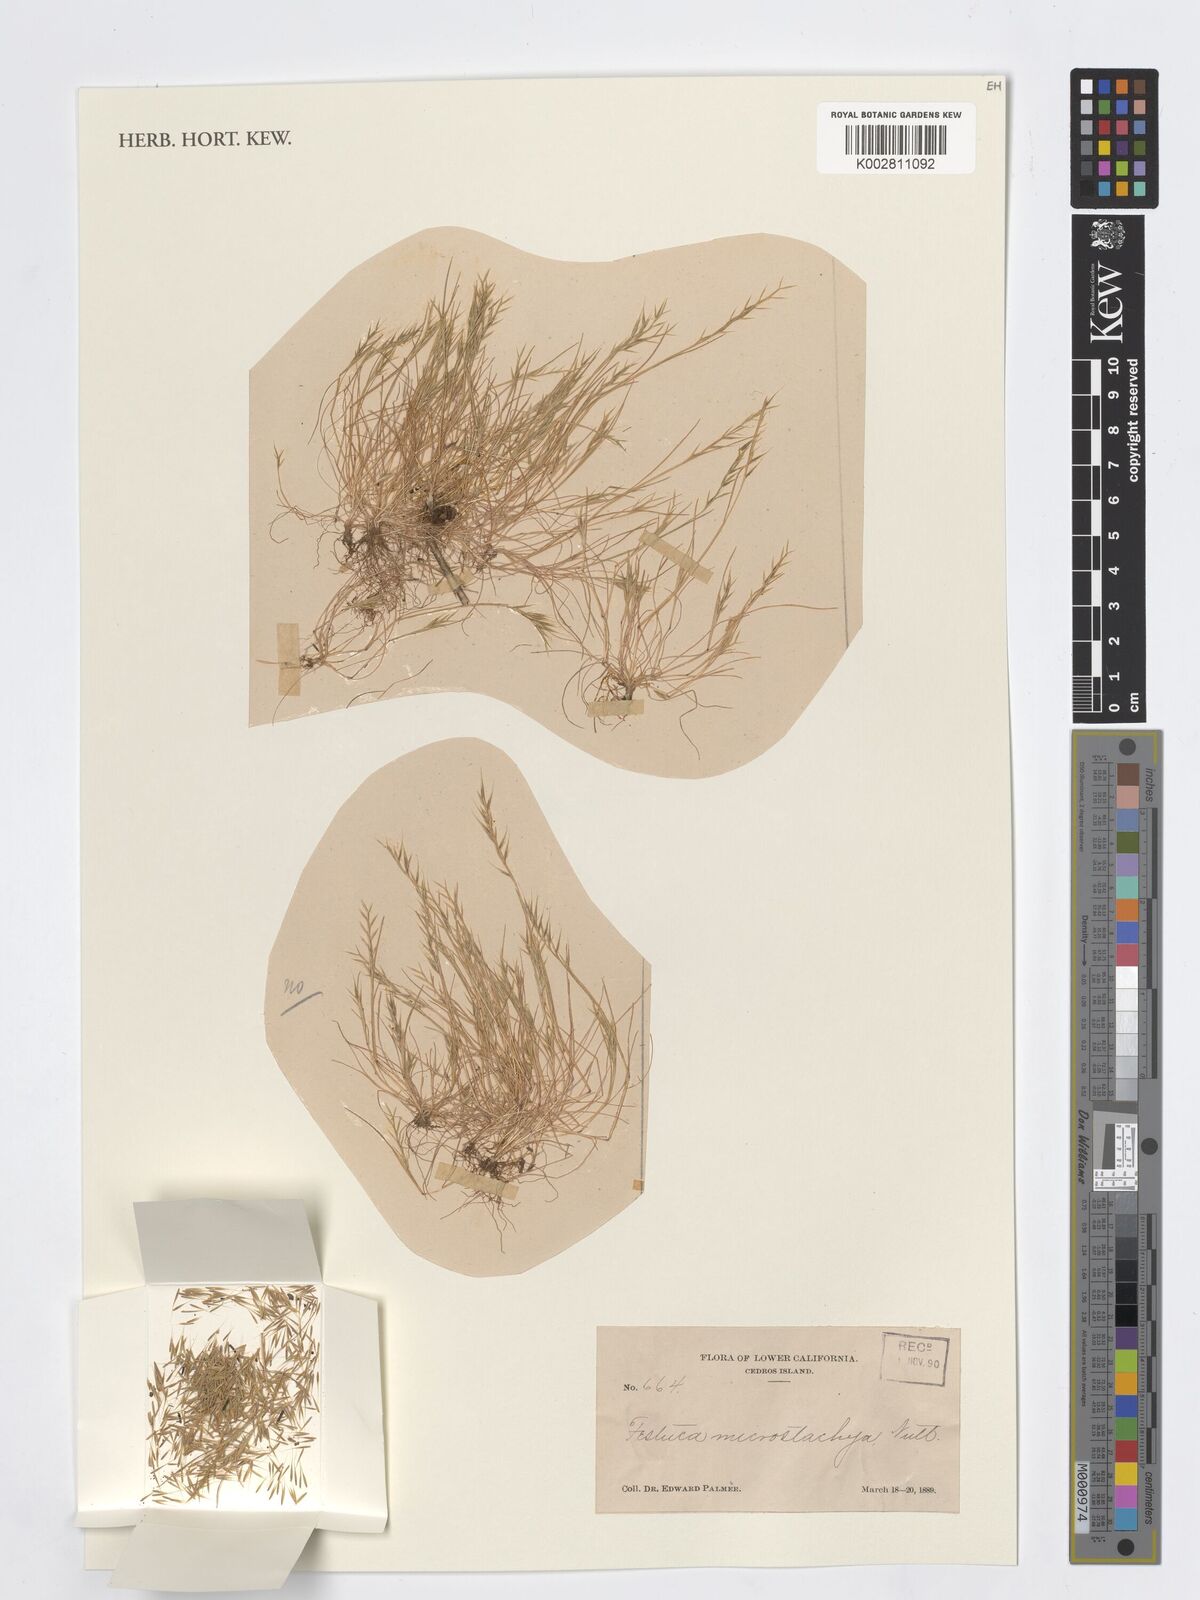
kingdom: Plantae
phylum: Tracheophyta
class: Liliopsida
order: Poales
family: Poaceae
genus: Festuca
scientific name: Festuca microstachys
